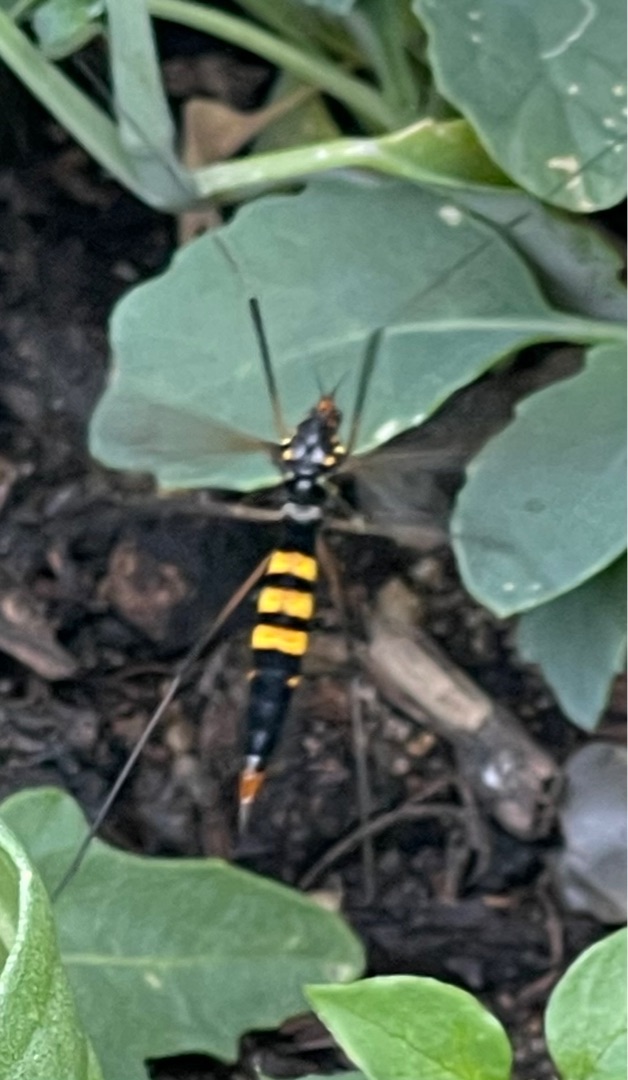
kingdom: Animalia
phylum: Arthropoda
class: Insecta
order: Diptera
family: Tipulidae
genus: Nephrotoma
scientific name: Nephrotoma crocata
